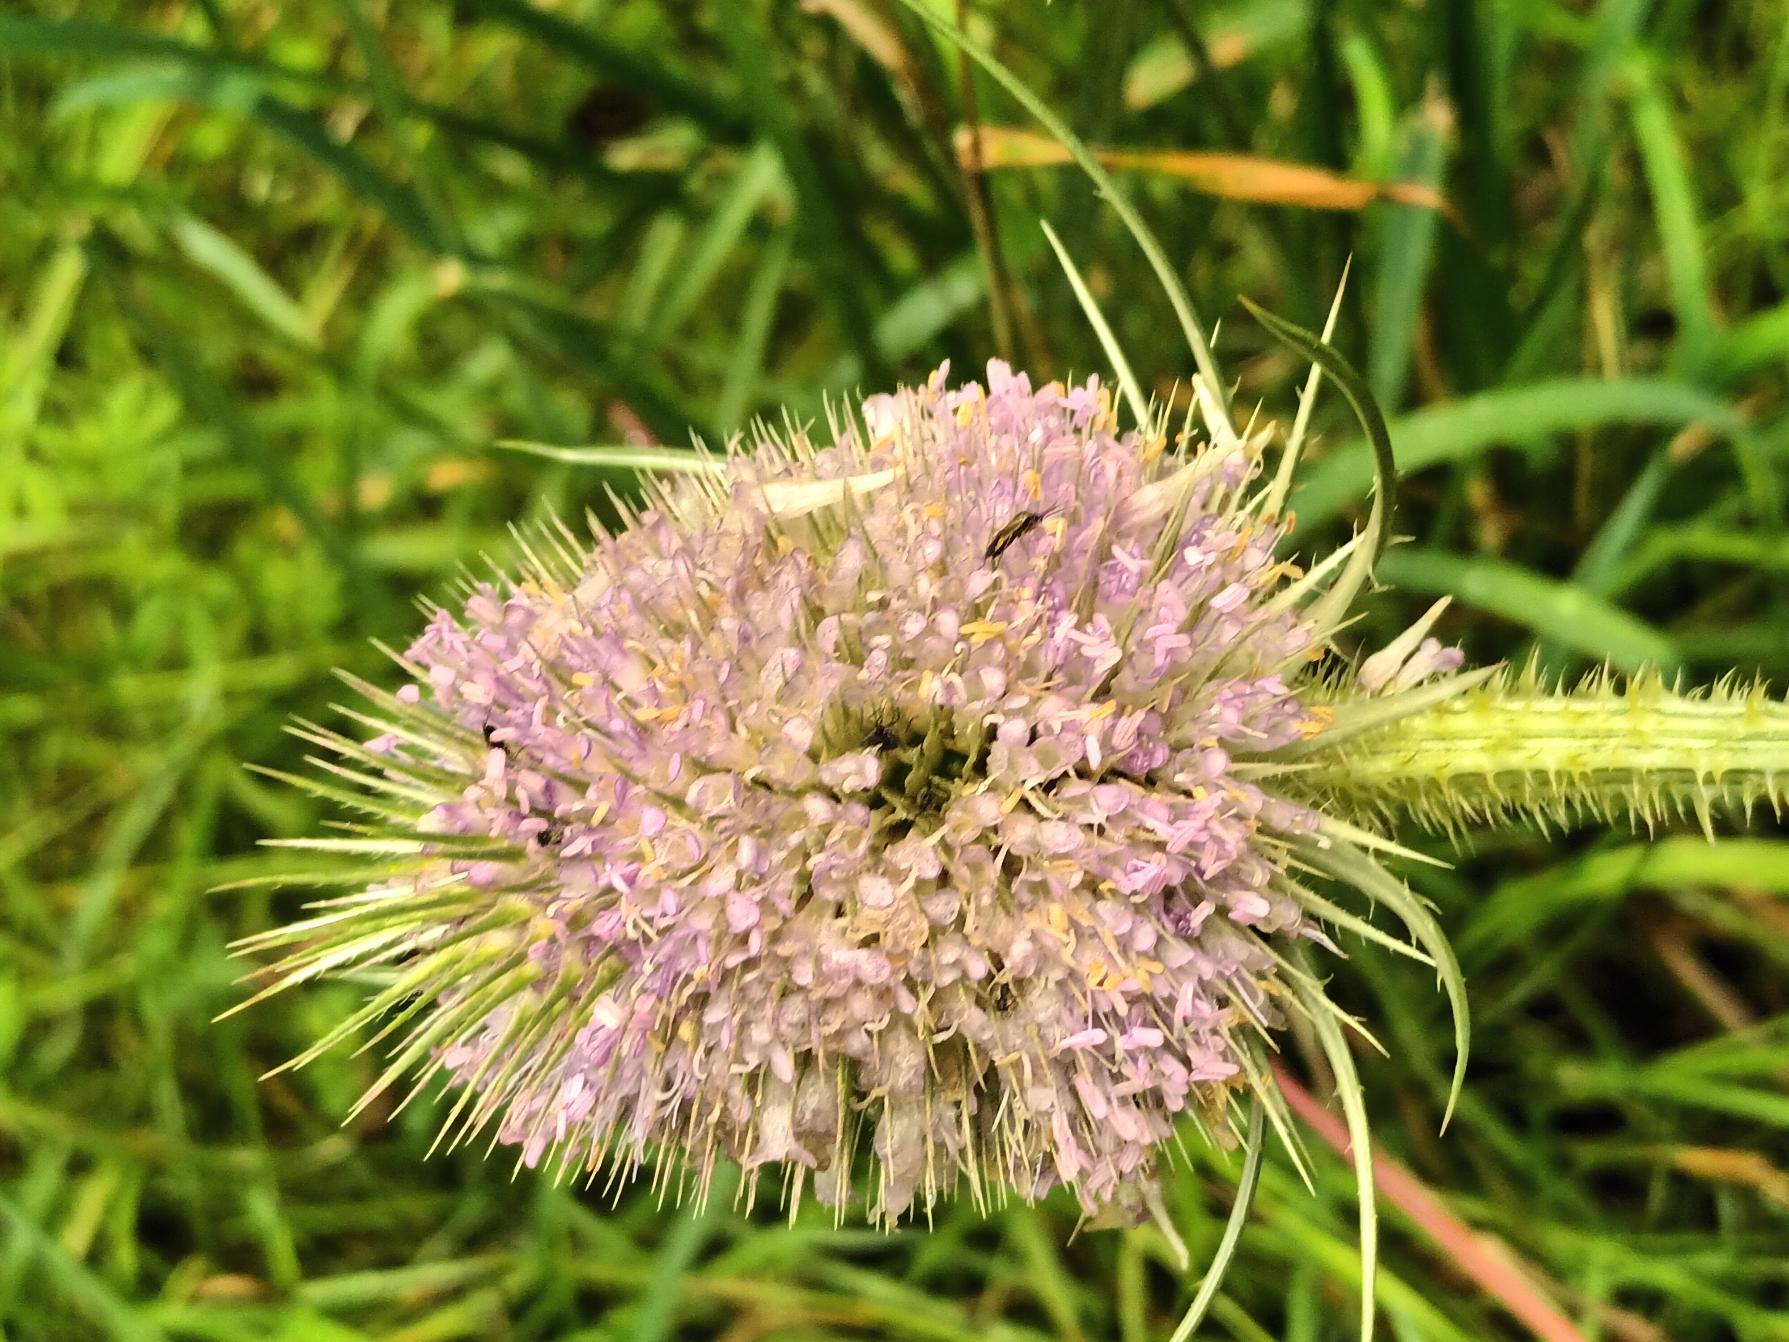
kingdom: Plantae
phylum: Tracheophyta
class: Magnoliopsida
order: Dipsacales
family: Caprifoliaceae
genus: Dipsacus
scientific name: Dipsacus fullonum
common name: Gærde-kartebolle
